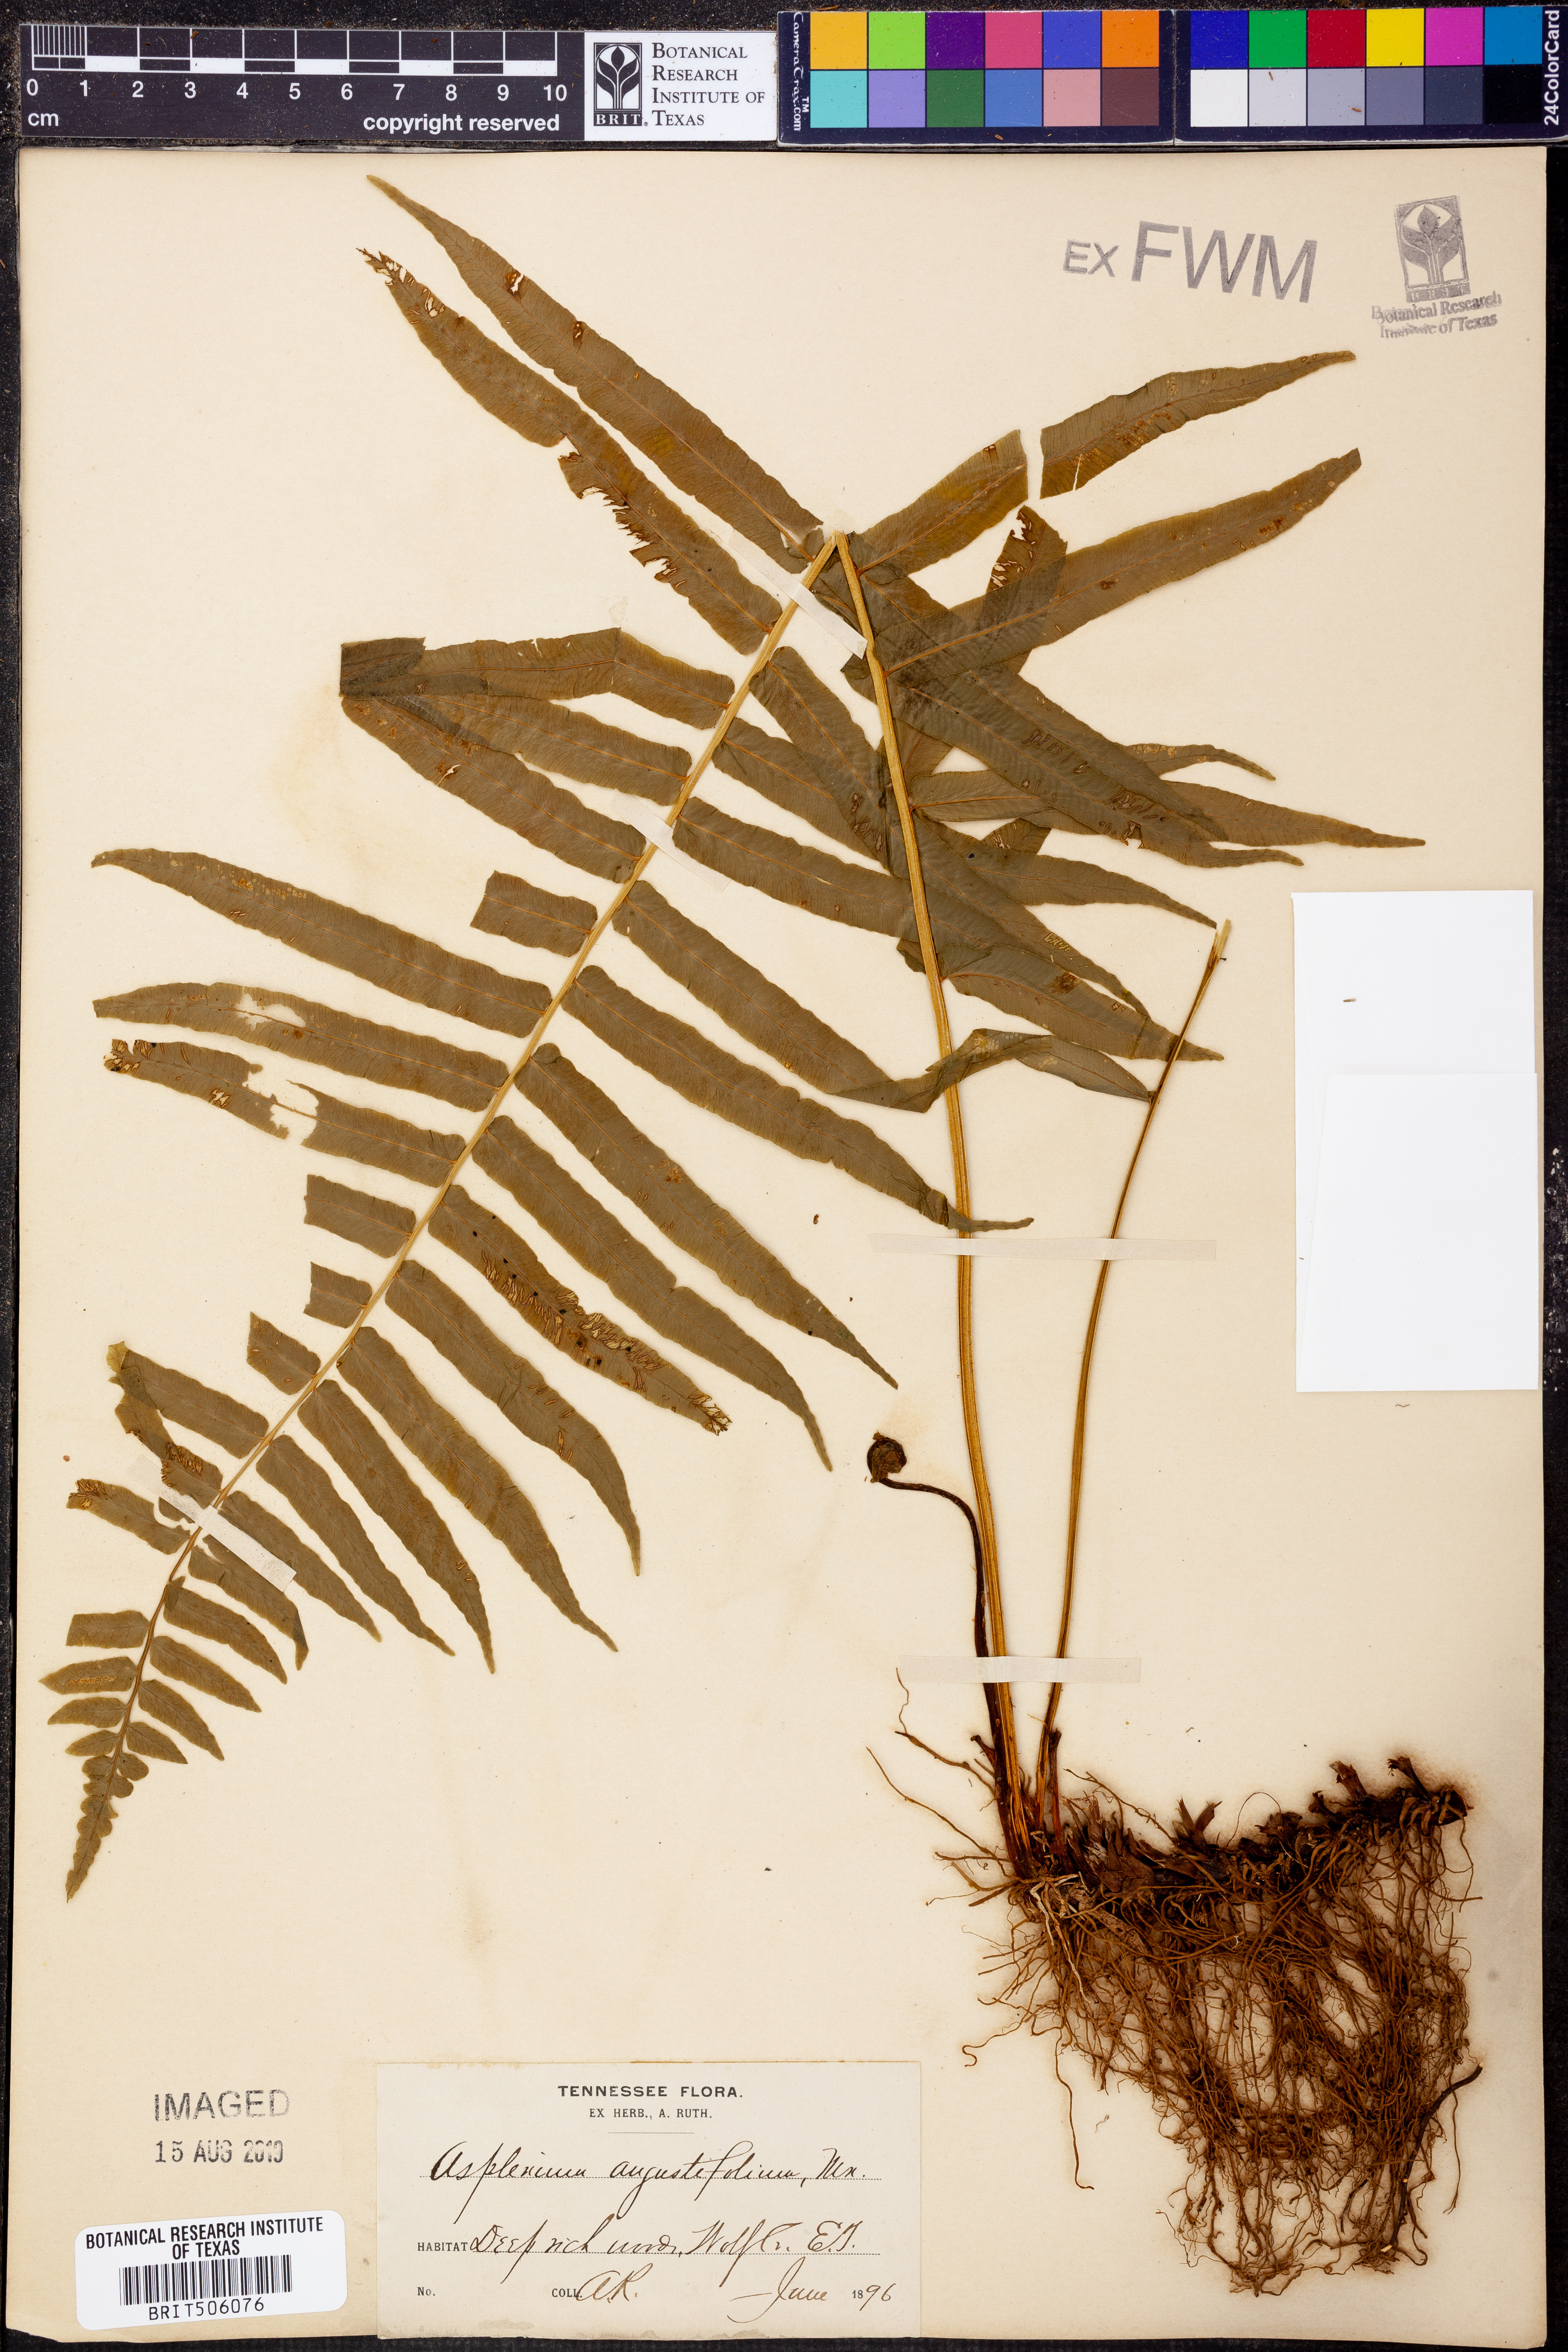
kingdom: Plantae
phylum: Tracheophyta
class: Polypodiopsida
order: Polypodiales
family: Diplaziopsidaceae
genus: Homalosorus
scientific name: Homalosorus pycnocarpos
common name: Glade fern
